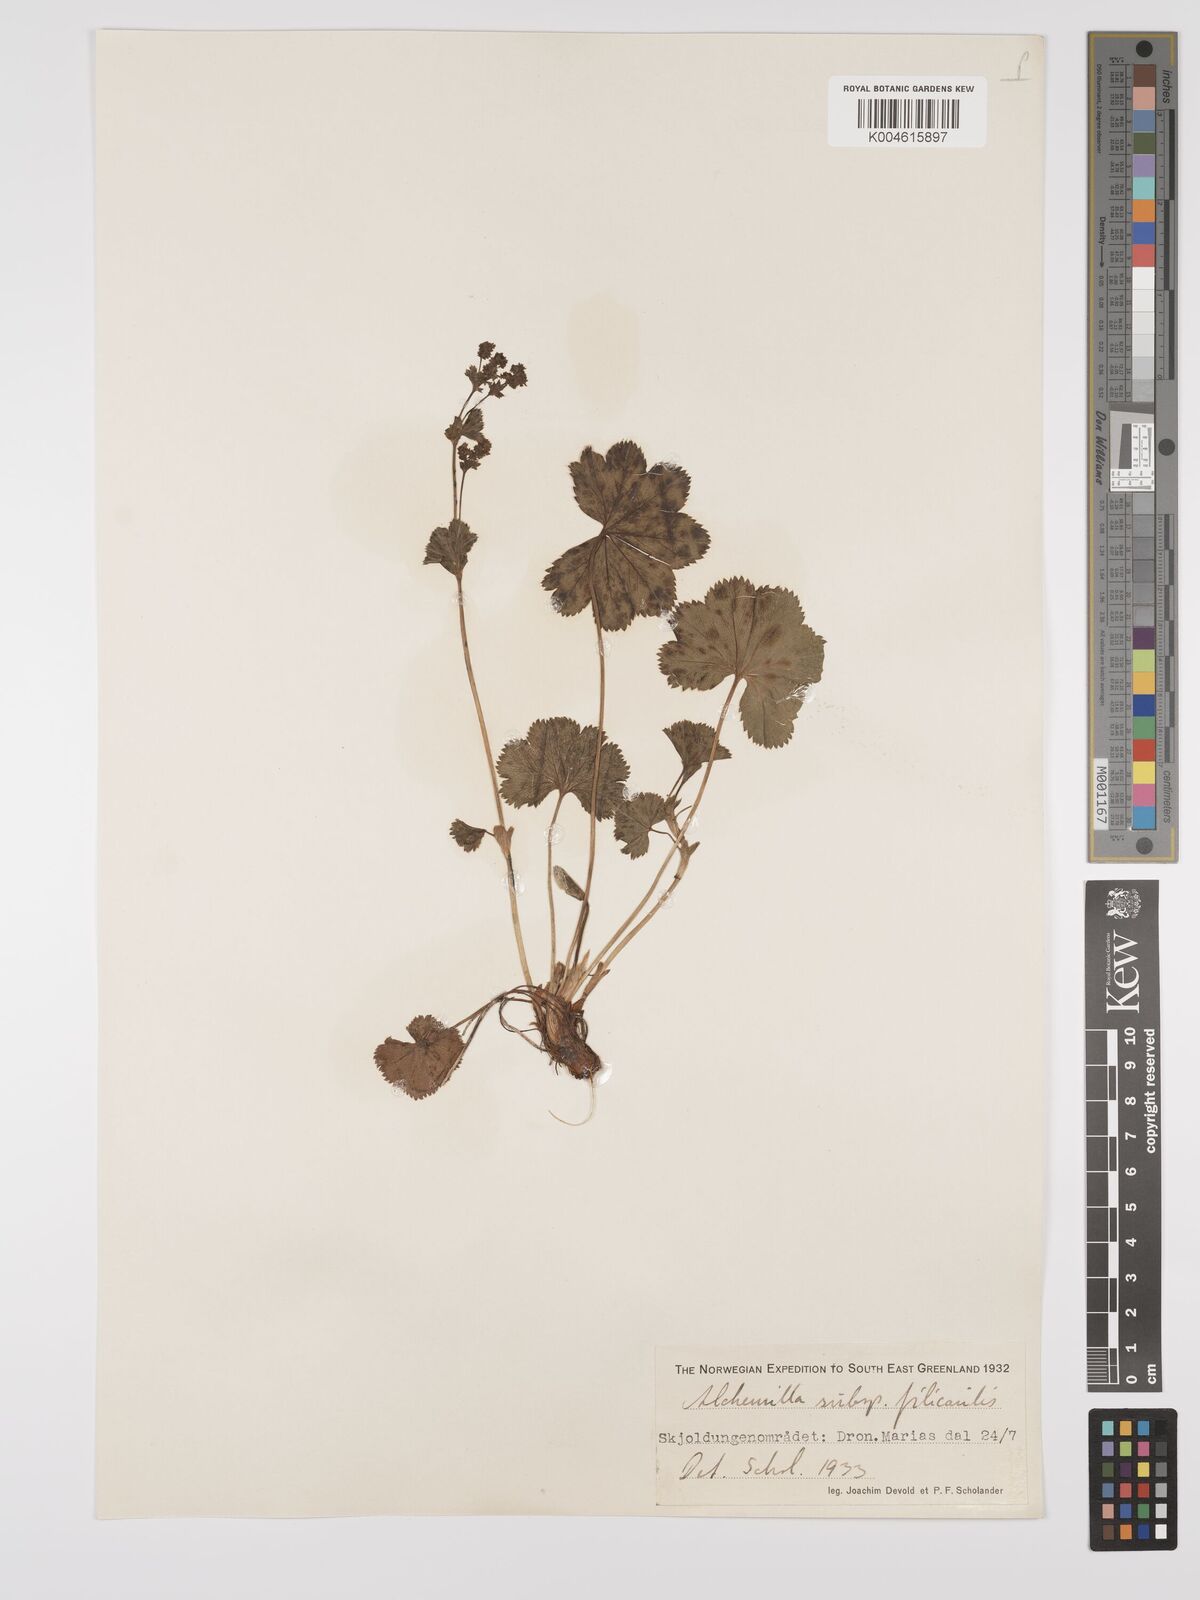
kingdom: Plantae
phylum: Tracheophyta
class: Magnoliopsida
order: Rosales
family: Rosaceae
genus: Alchemilla
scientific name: Alchemilla filicaulis
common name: Hairy lady's-mantle
